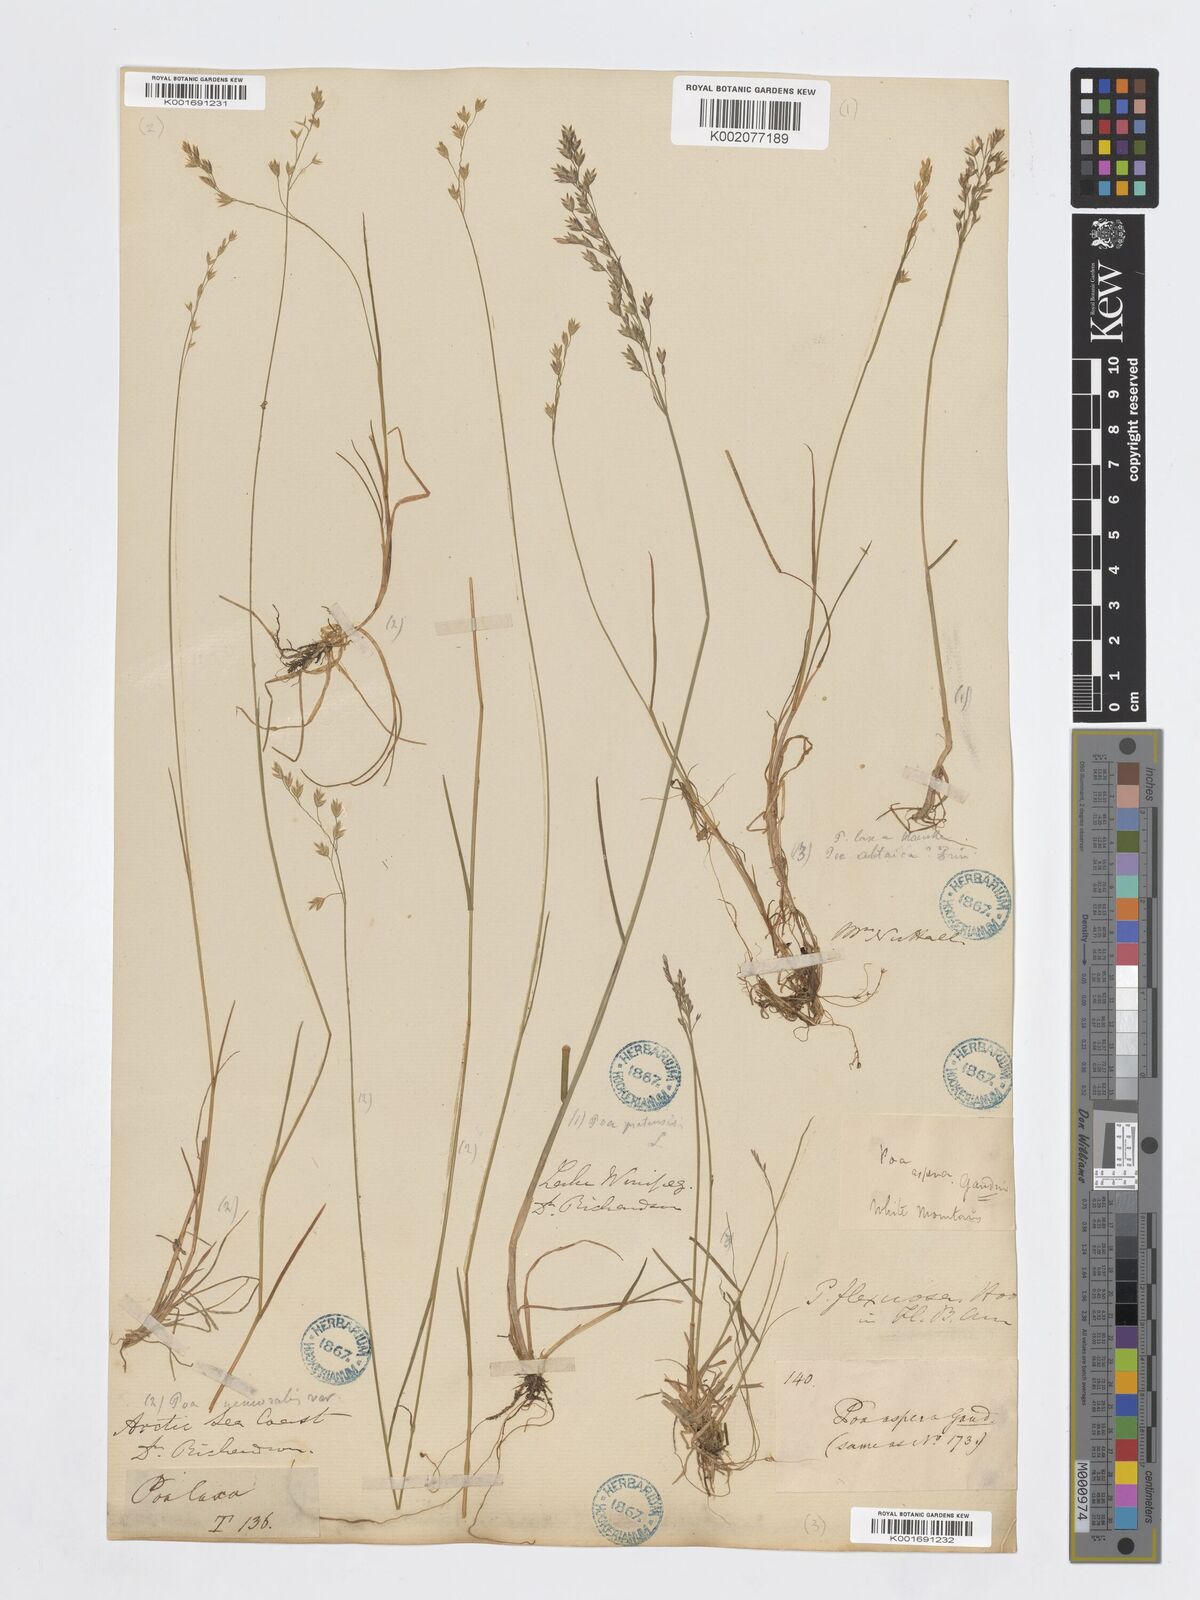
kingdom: Plantae
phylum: Tracheophyta
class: Liliopsida
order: Poales
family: Poaceae
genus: Poa
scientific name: Poa nemoralis
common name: Wood bluegrass
